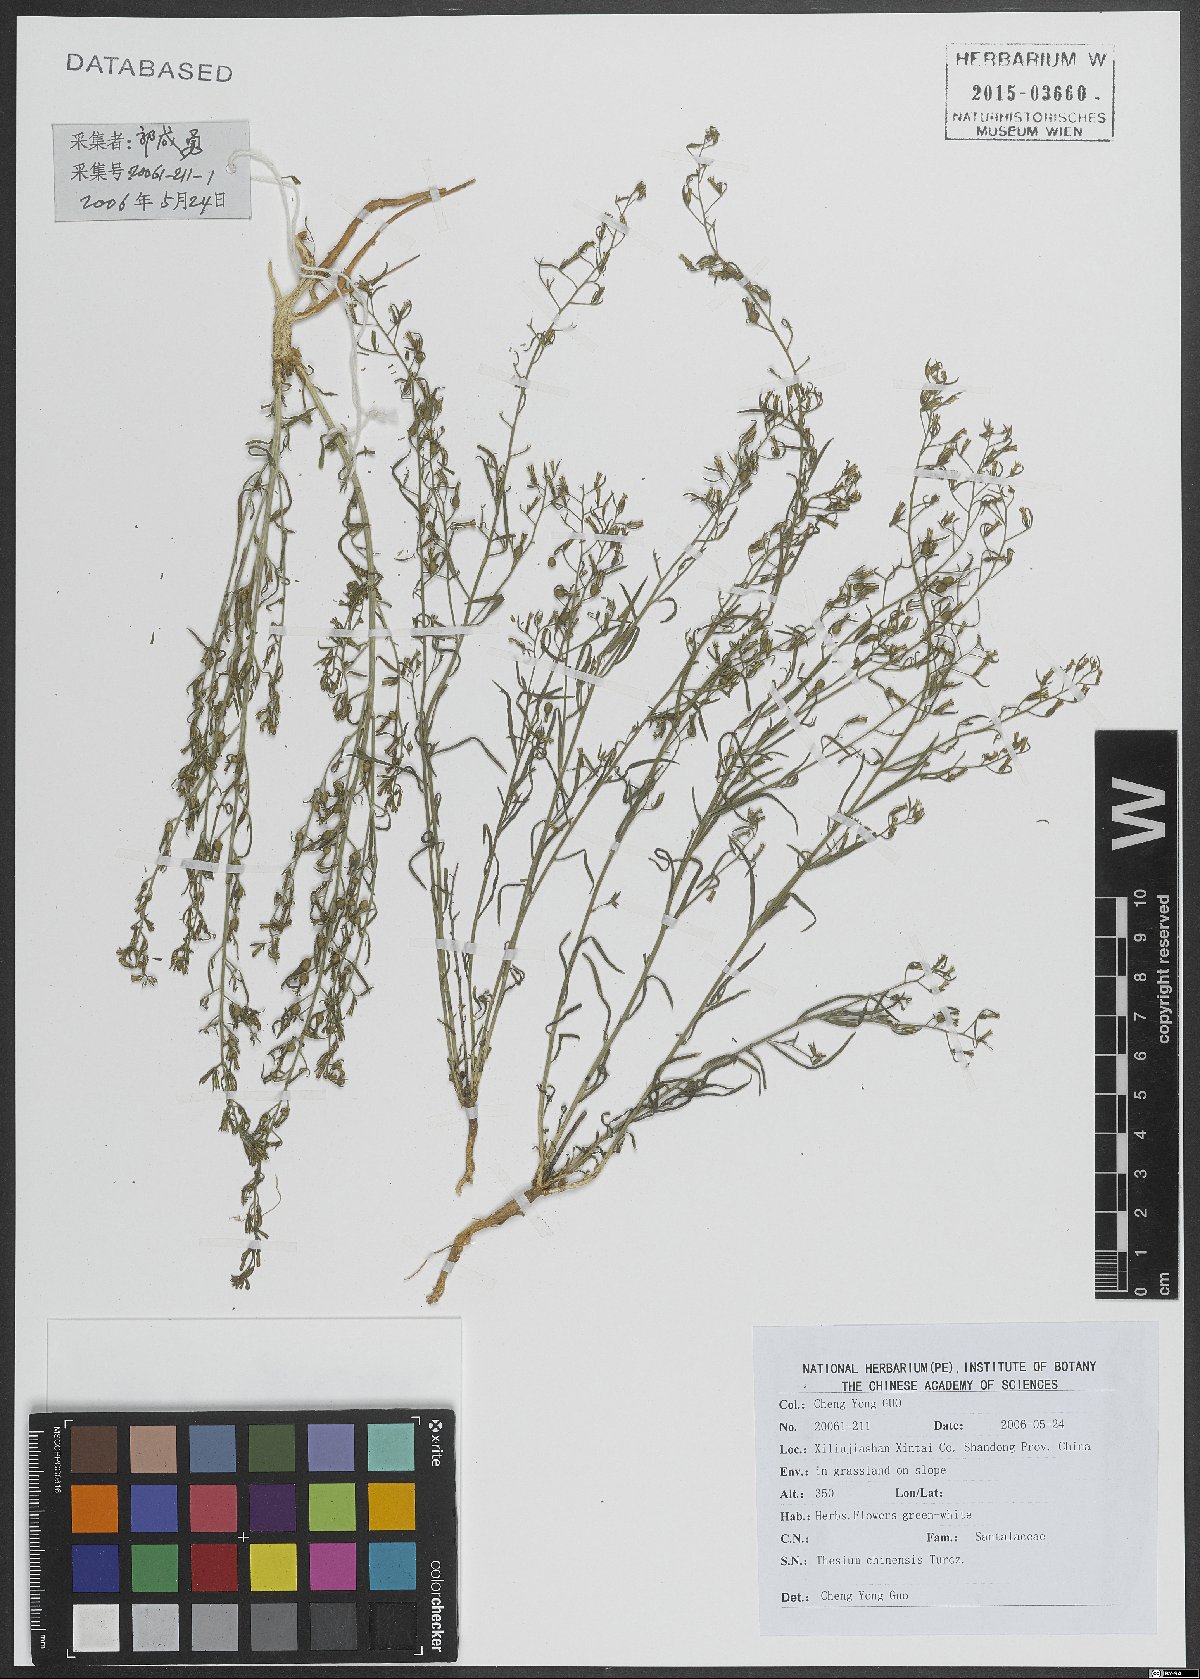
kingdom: Plantae
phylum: Tracheophyta
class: Magnoliopsida
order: Santalales
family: Thesiaceae
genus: Thesium
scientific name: Thesium chinense
